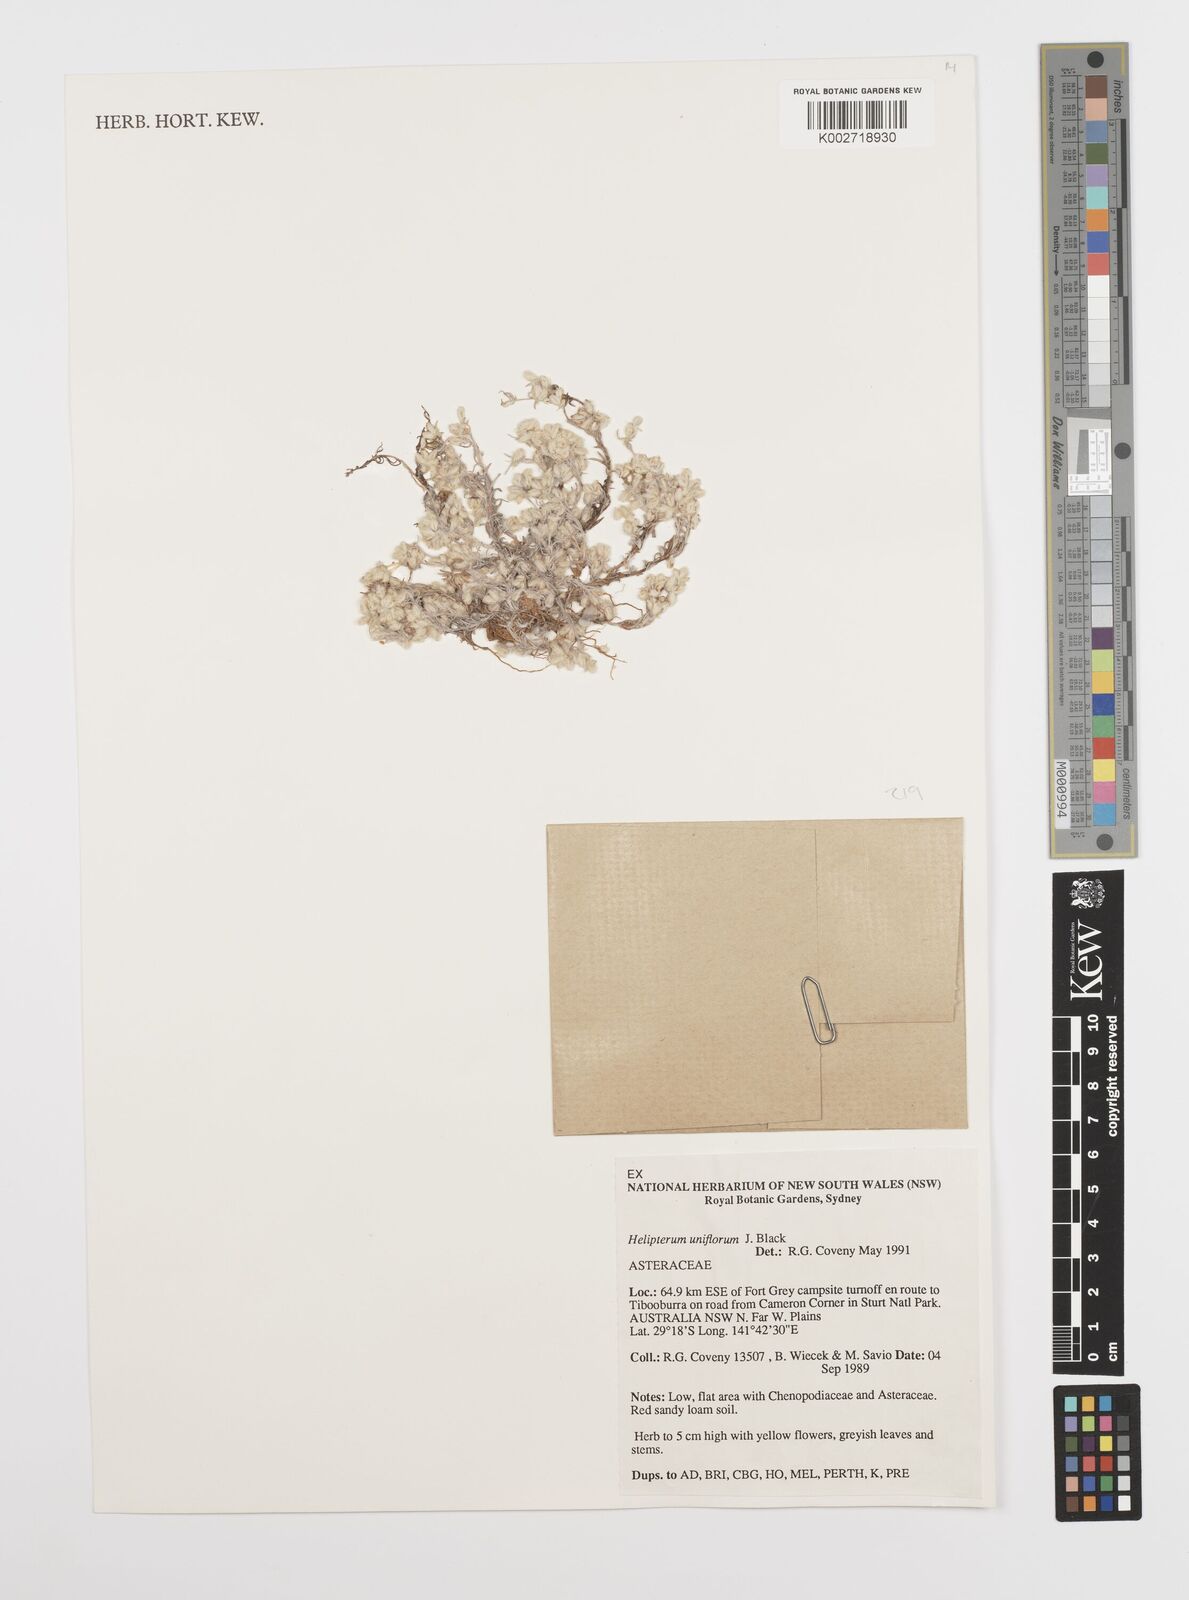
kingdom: Plantae
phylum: Tracheophyta
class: Magnoliopsida
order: Asterales
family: Asteraceae
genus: Rhodanthe
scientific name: Rhodanthe uniflora
